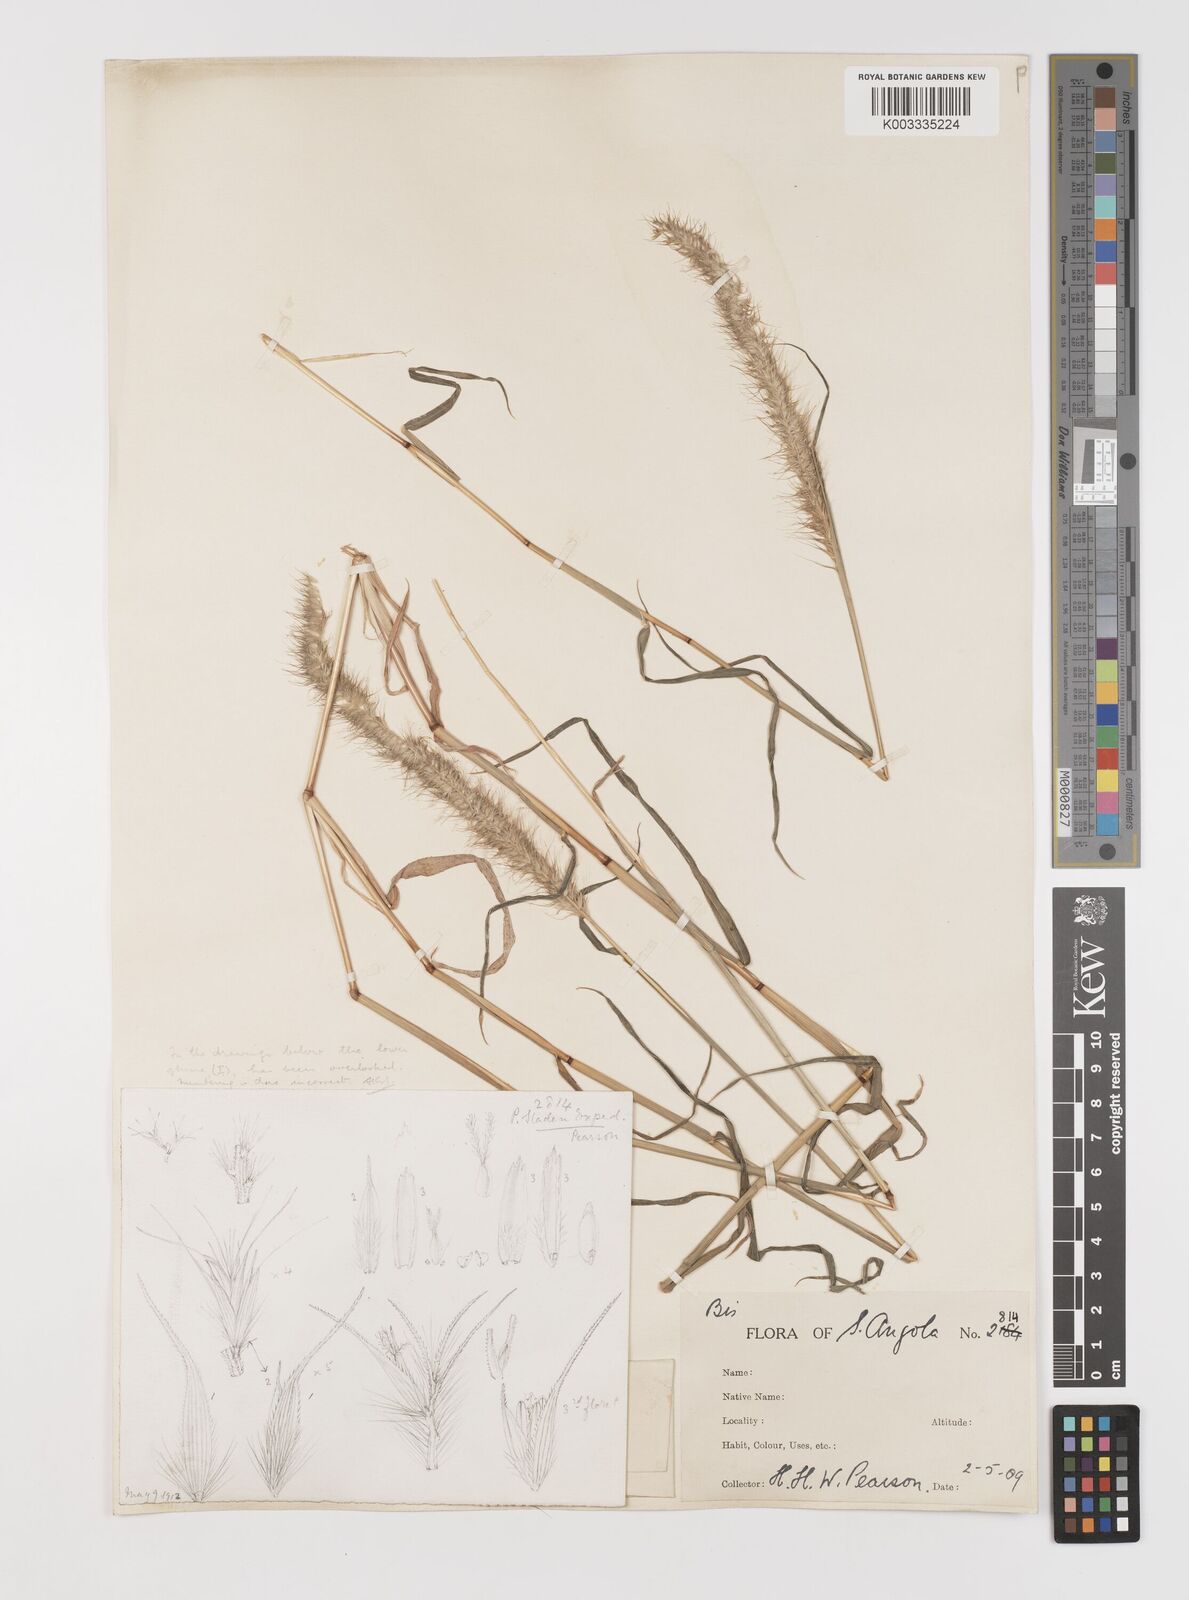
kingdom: Plantae
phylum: Tracheophyta
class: Liliopsida
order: Poales
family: Poaceae
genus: Monelytrum
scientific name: Monelytrum luederitzianum
